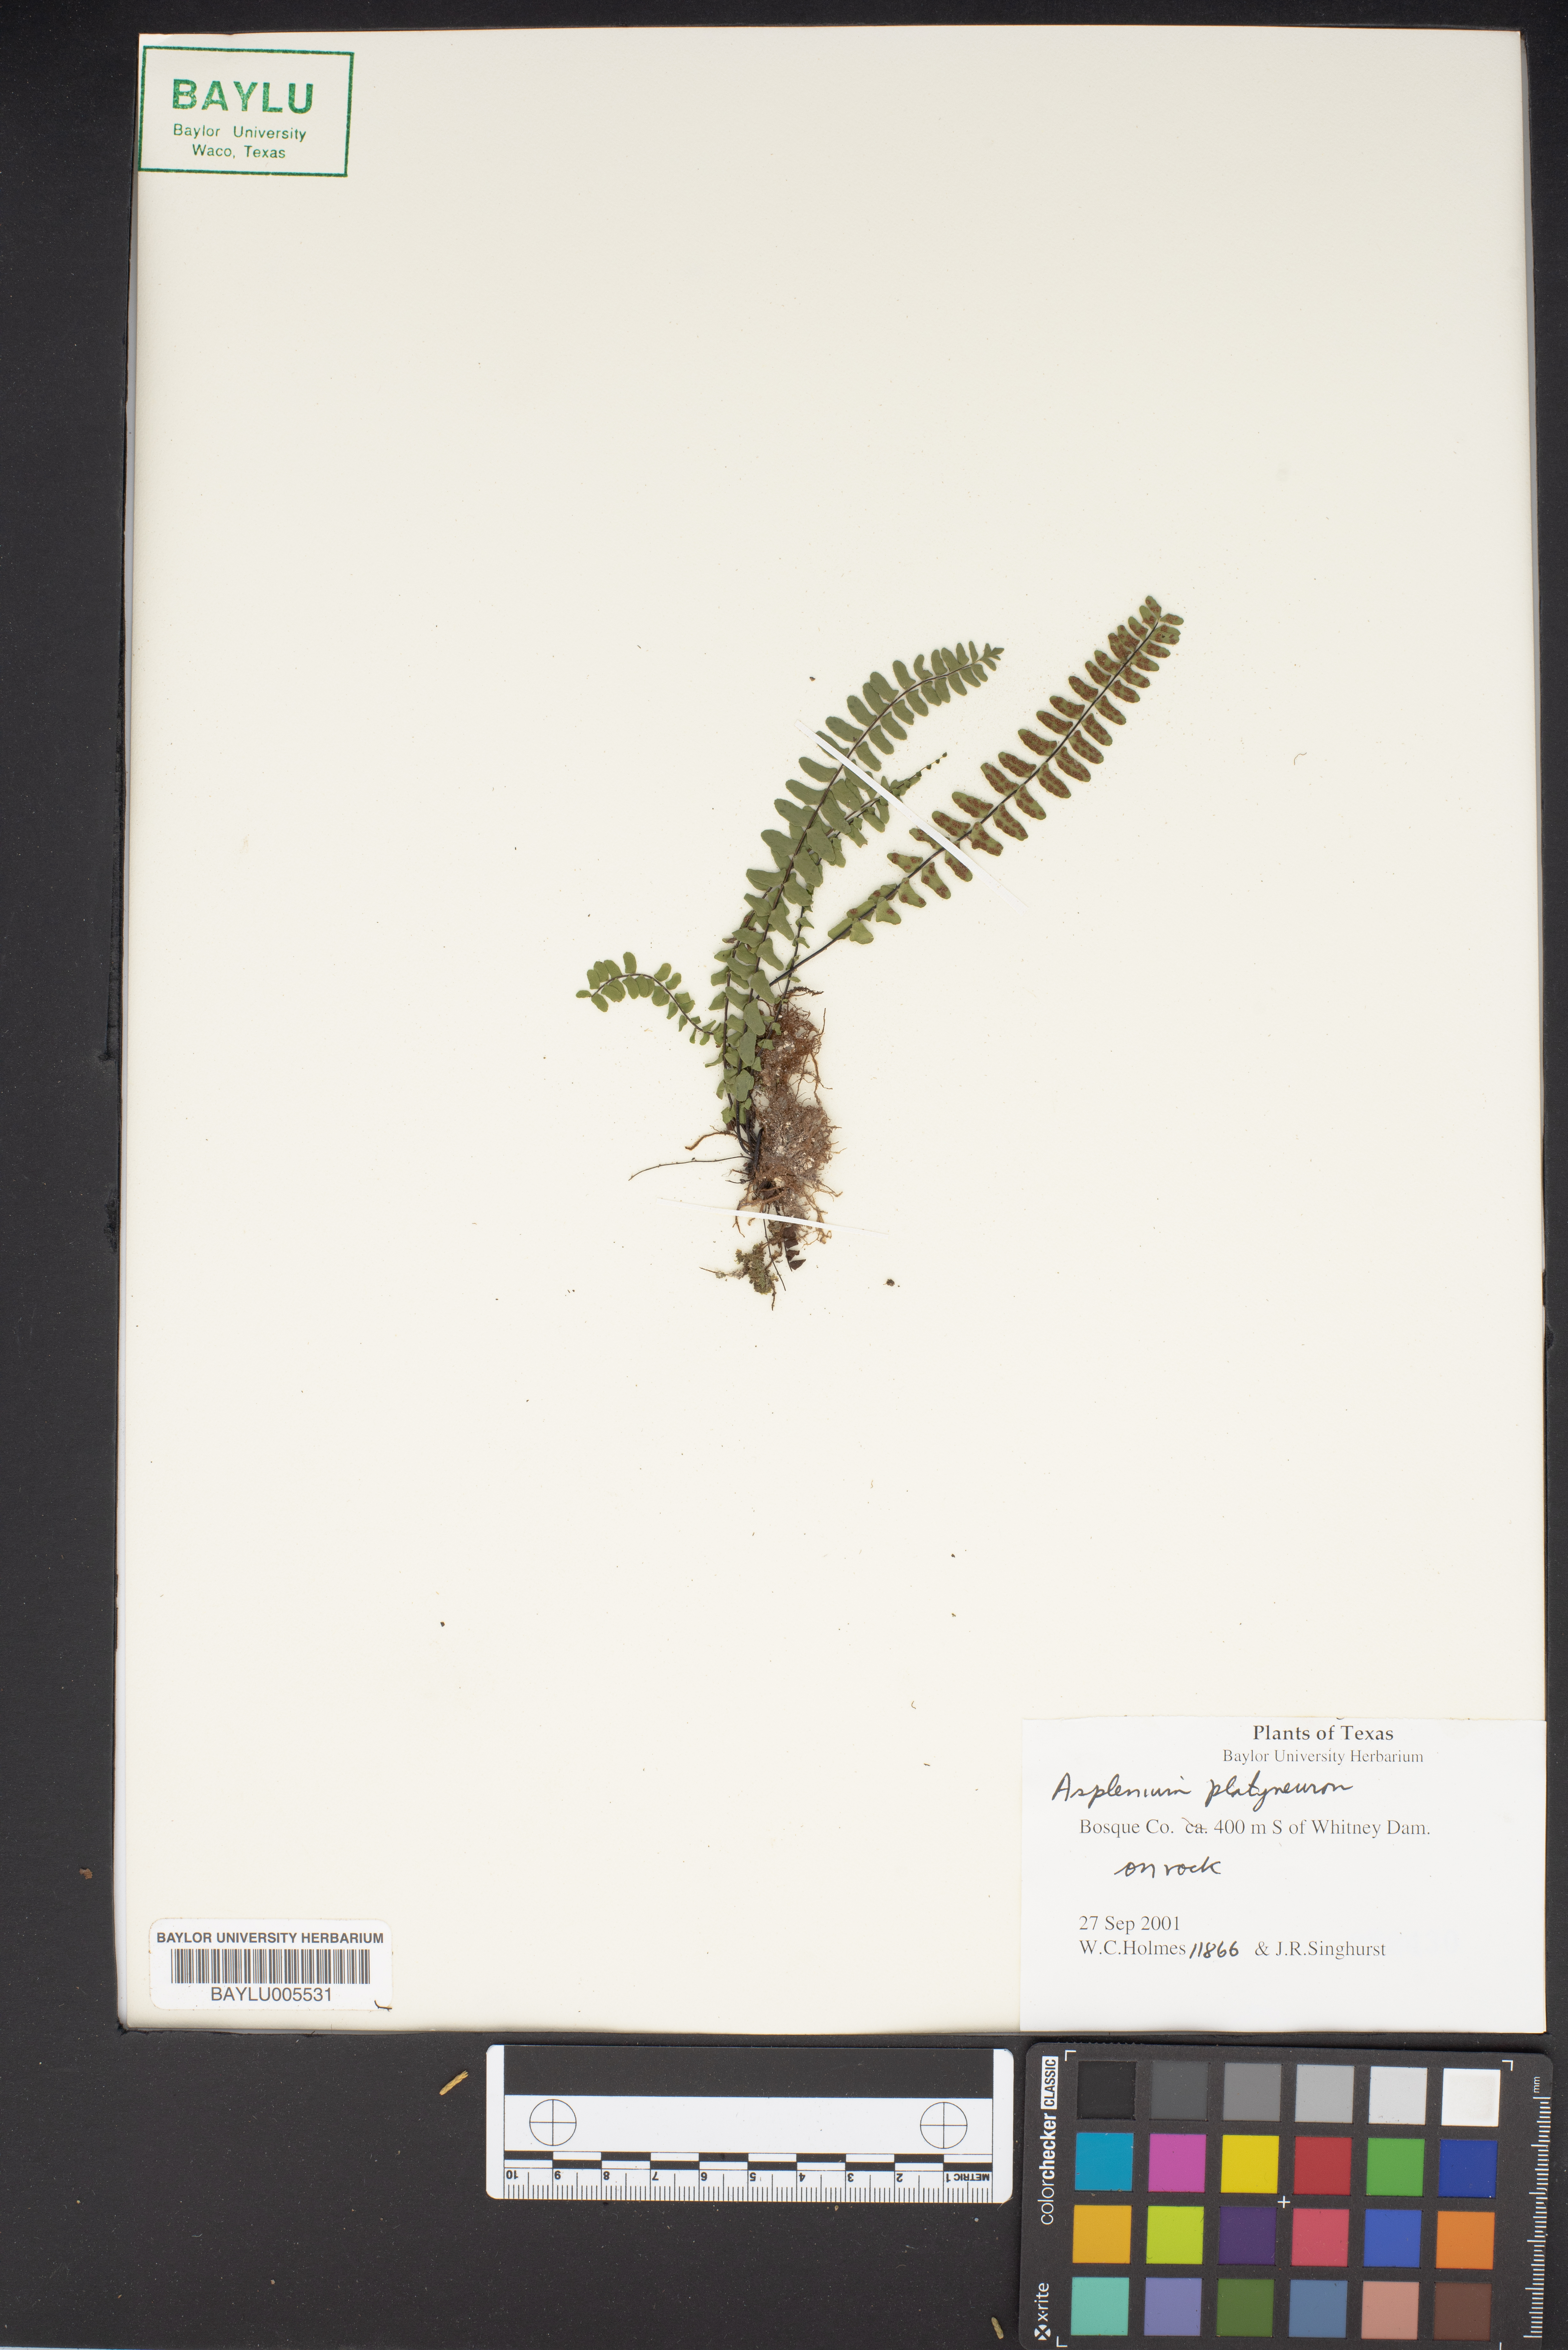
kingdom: Plantae
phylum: Tracheophyta
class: Polypodiopsida
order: Polypodiales
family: Aspleniaceae
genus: Asplenium
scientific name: Asplenium platyneuron
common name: Ebony spleenwort
